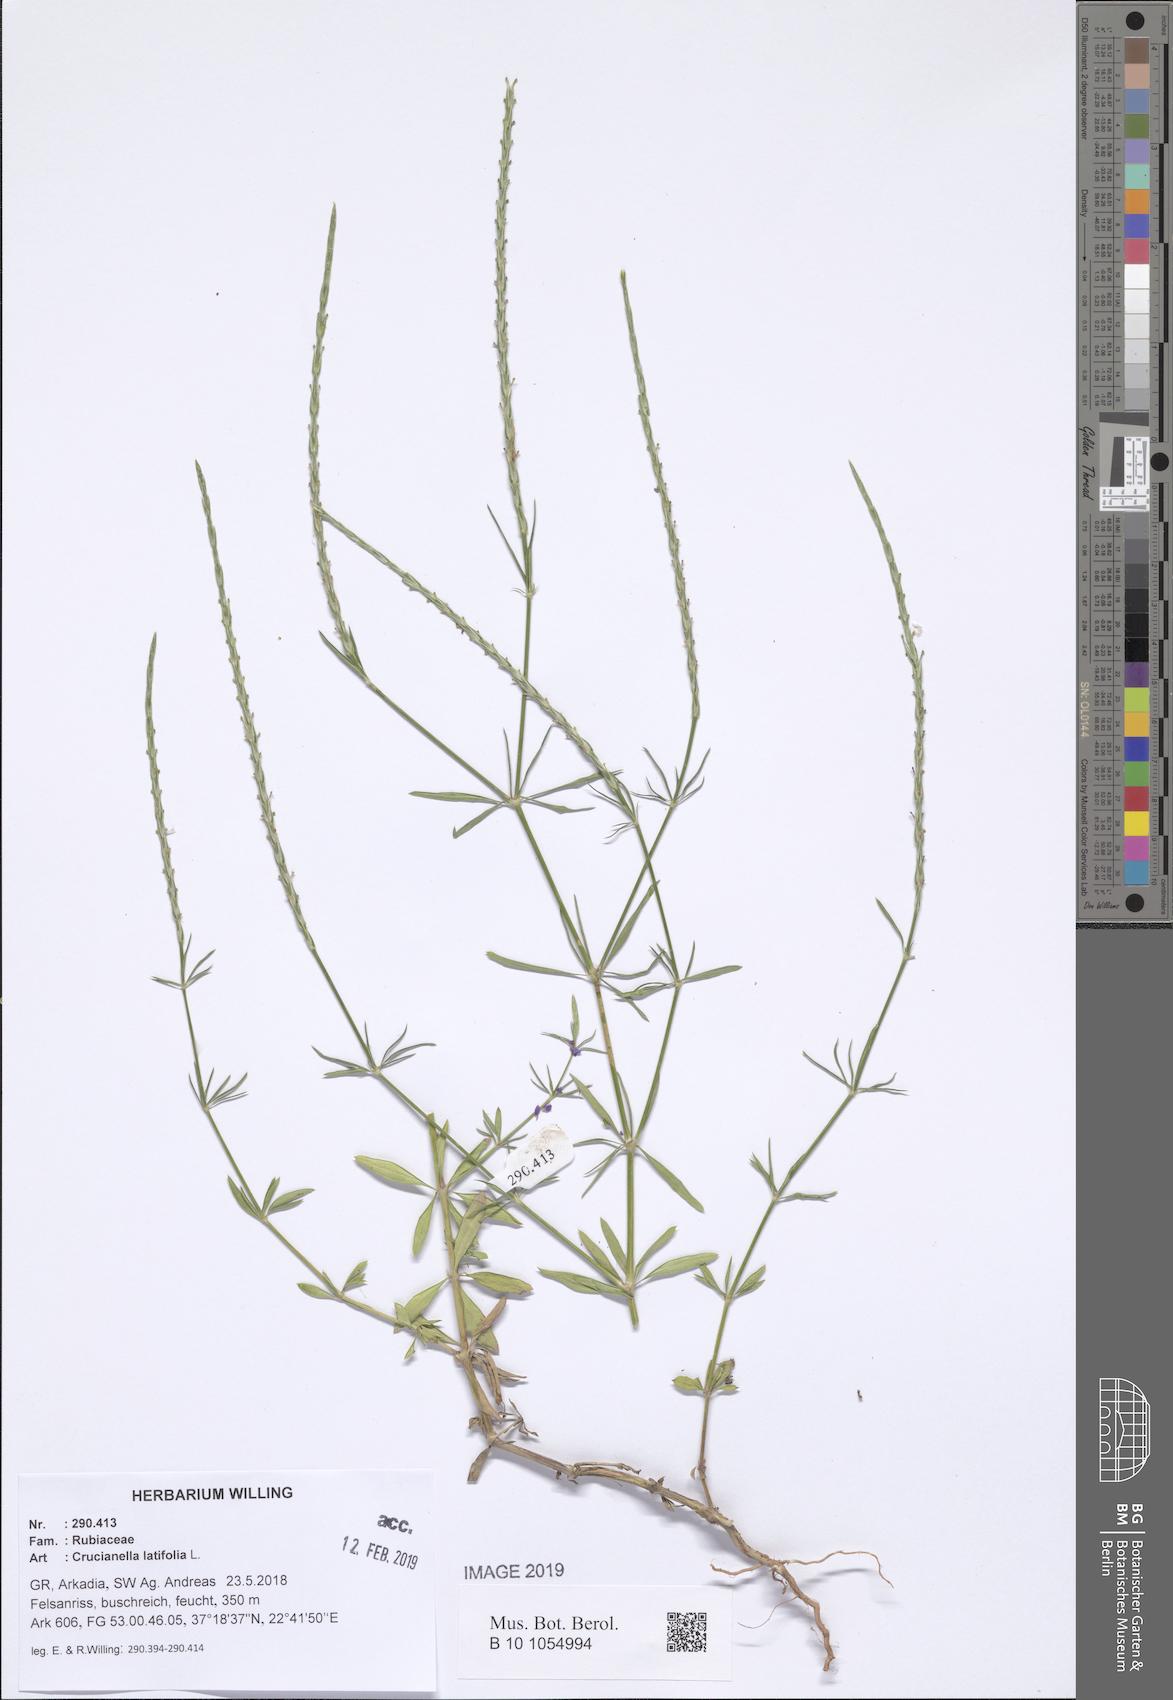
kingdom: Plantae
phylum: Tracheophyta
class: Magnoliopsida
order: Gentianales
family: Rubiaceae
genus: Crucianella
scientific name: Crucianella latifolia
